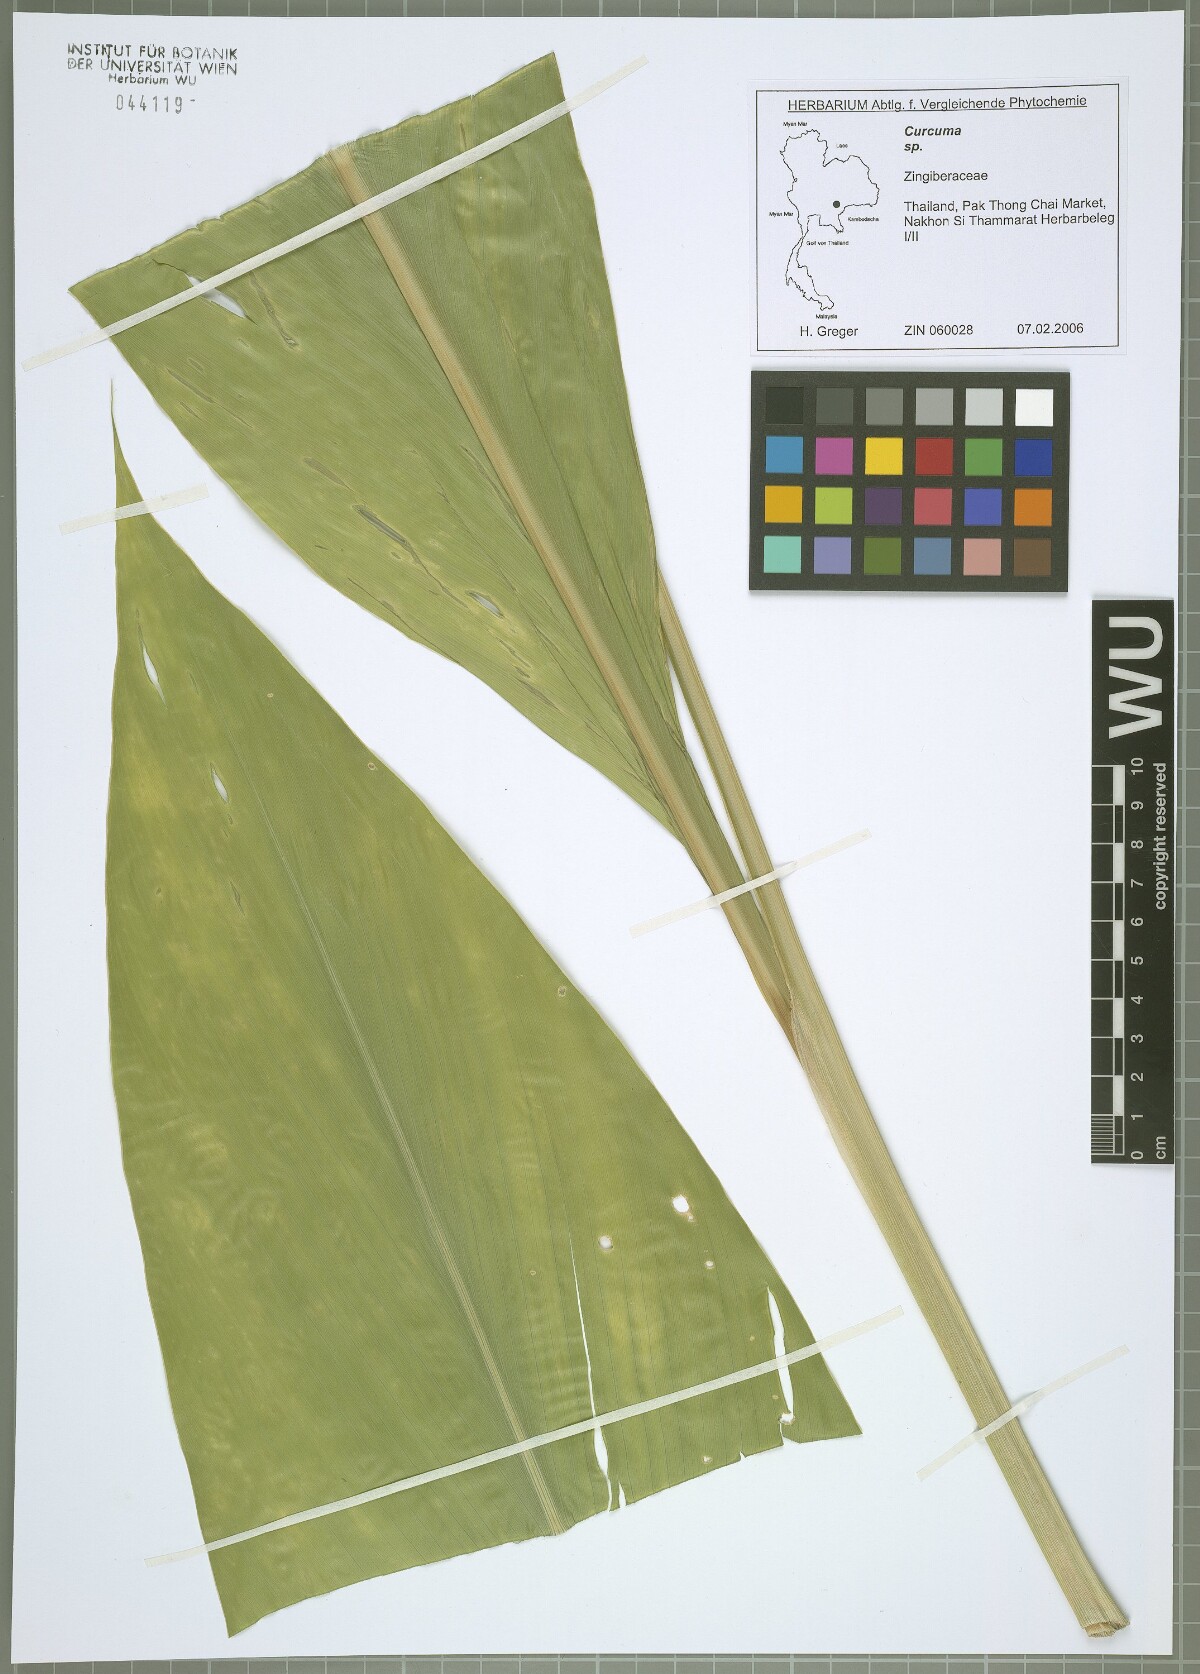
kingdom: Plantae
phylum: Tracheophyta
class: Liliopsida
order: Zingiberales
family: Zingiberaceae
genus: Curcuma
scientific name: Curcuma
